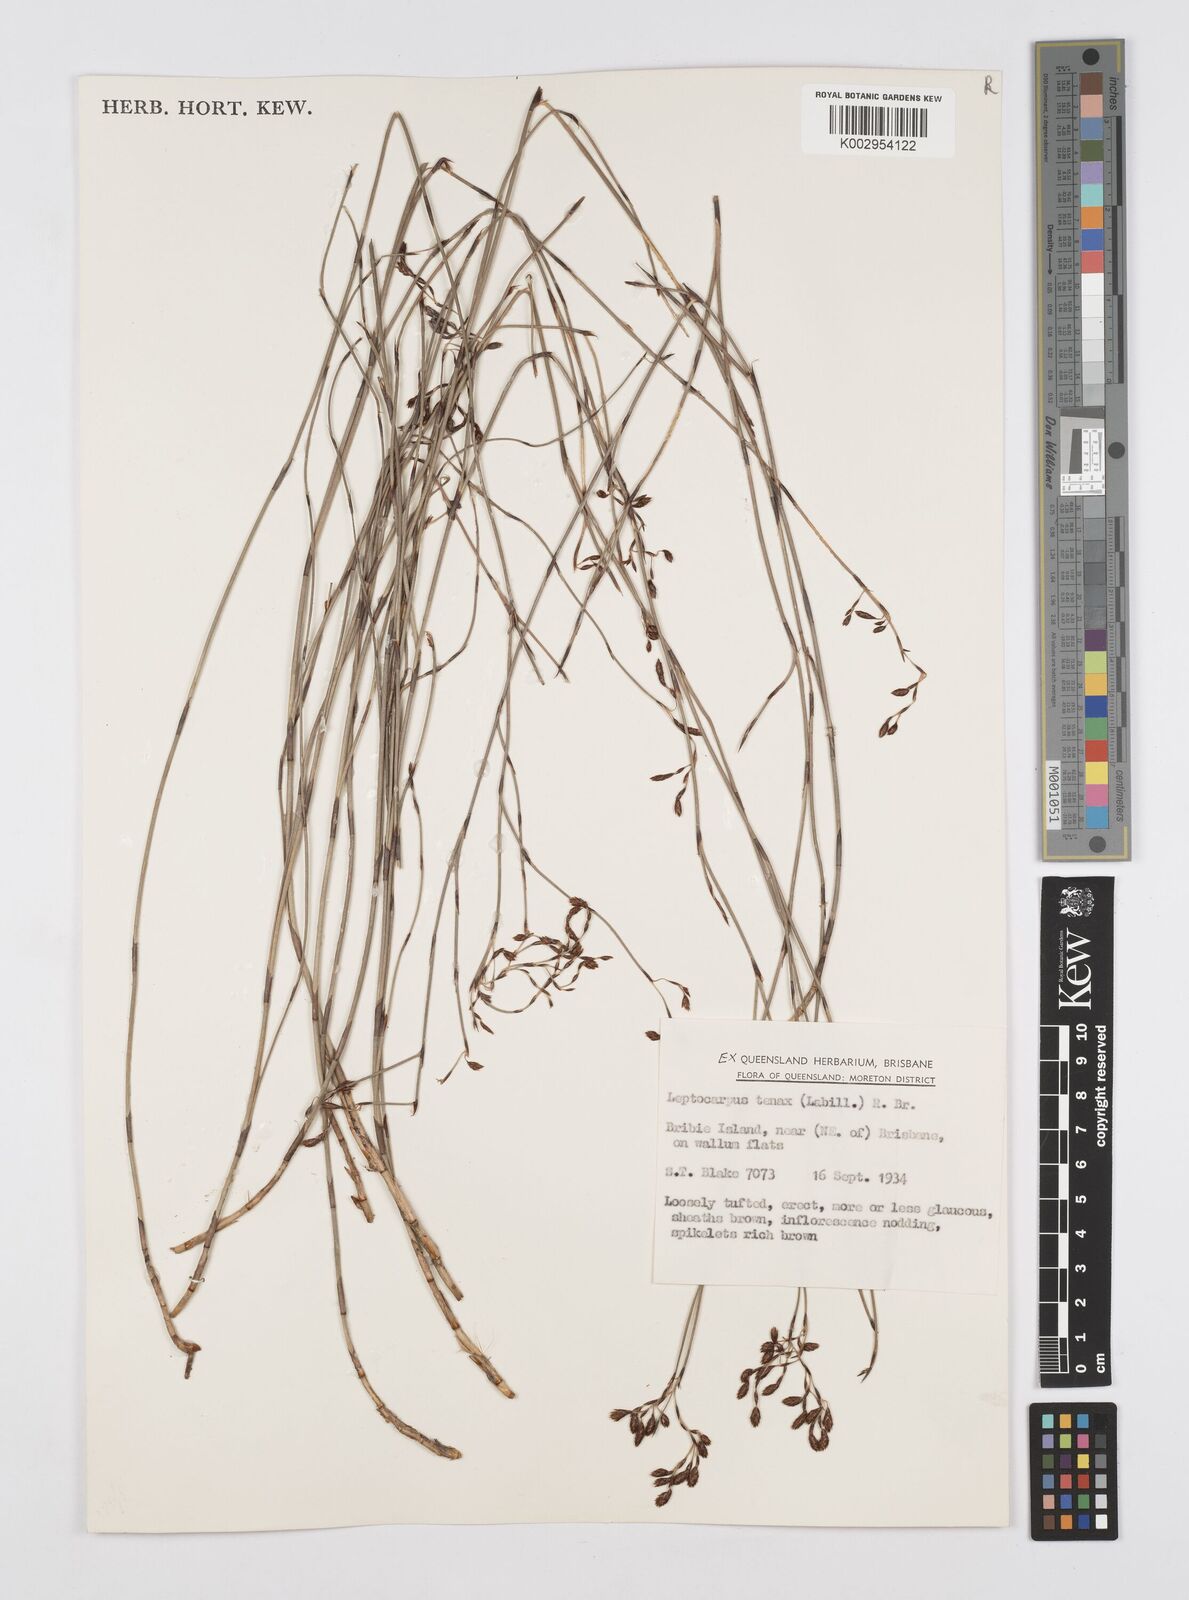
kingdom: Plantae
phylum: Tracheophyta
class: Liliopsida
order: Poales
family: Restionaceae
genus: Leptocarpus
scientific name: Leptocarpus tenax
